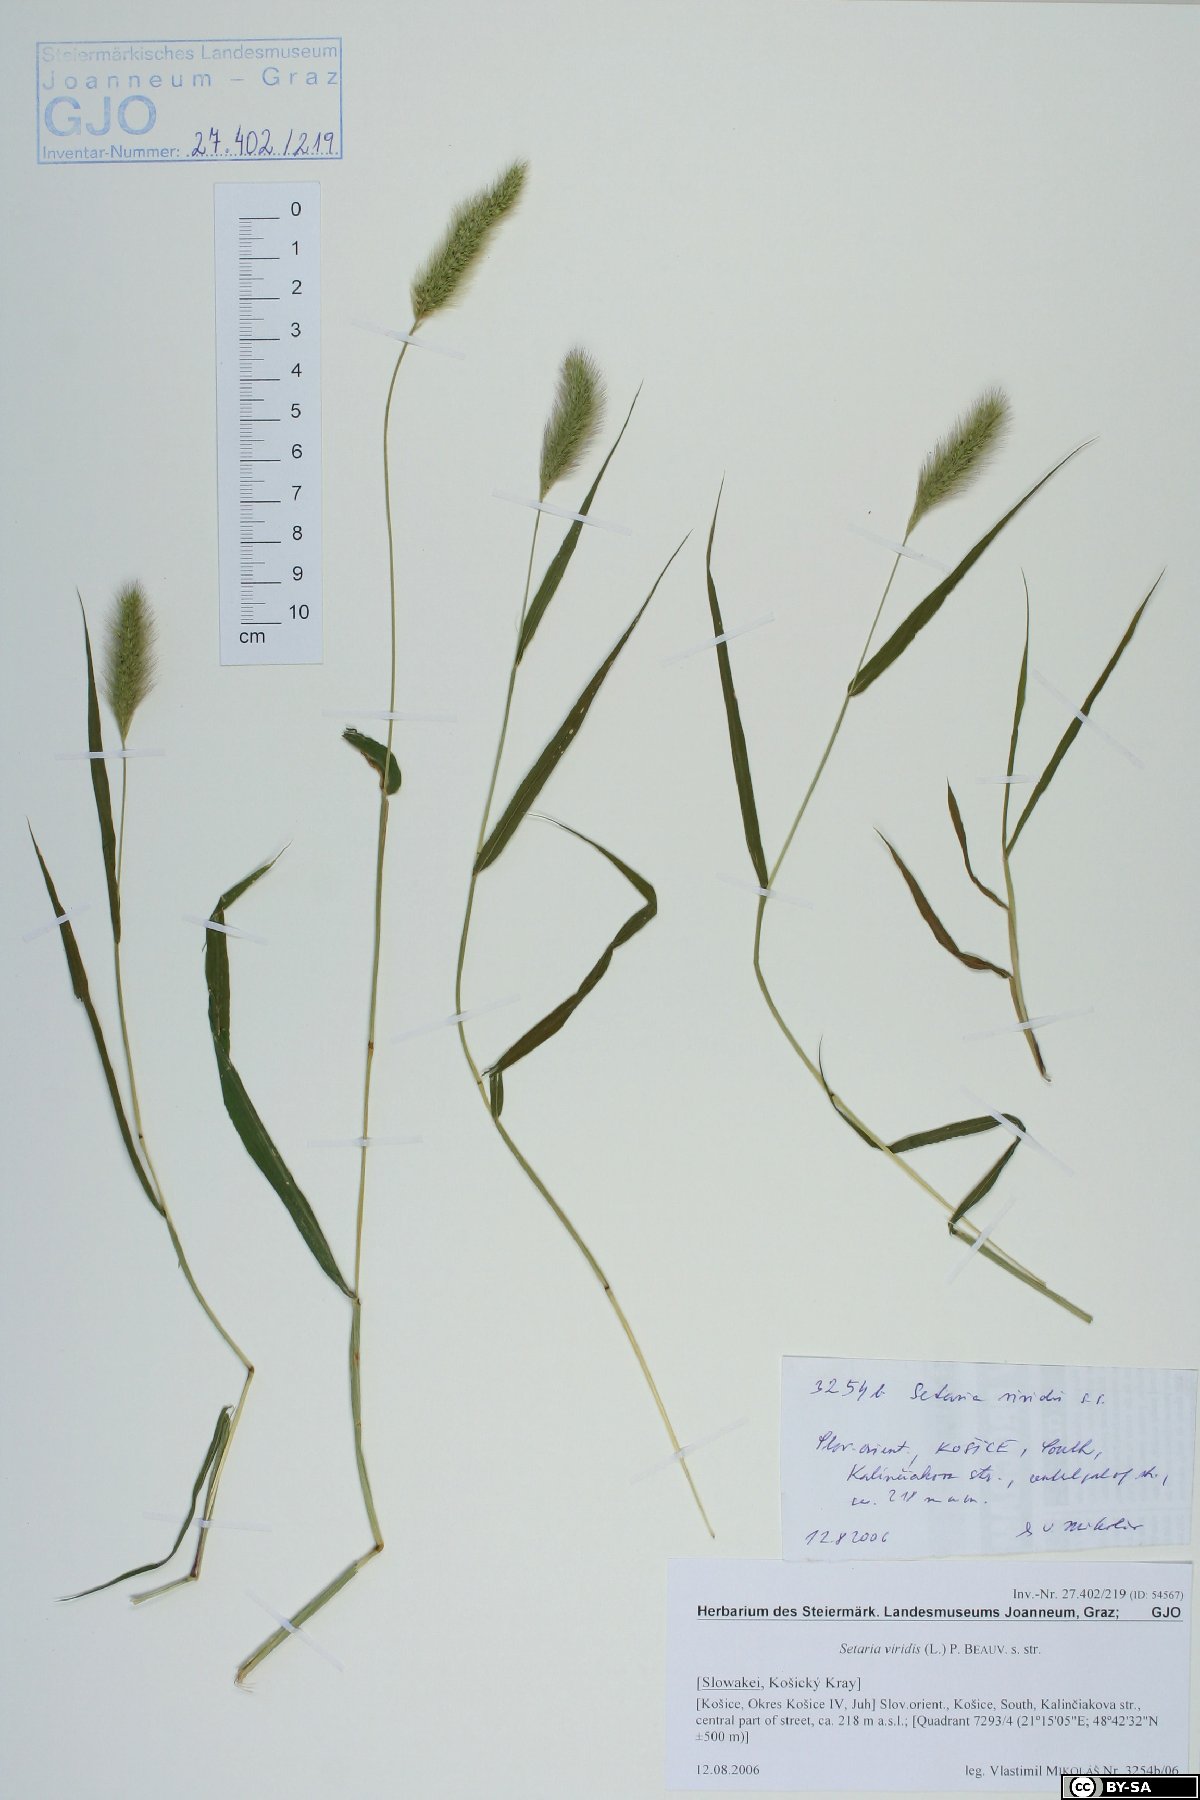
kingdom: Plantae
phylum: Tracheophyta
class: Liliopsida
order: Poales
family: Poaceae
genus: Setaria
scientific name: Setaria viridis
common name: Green bristlegrass
